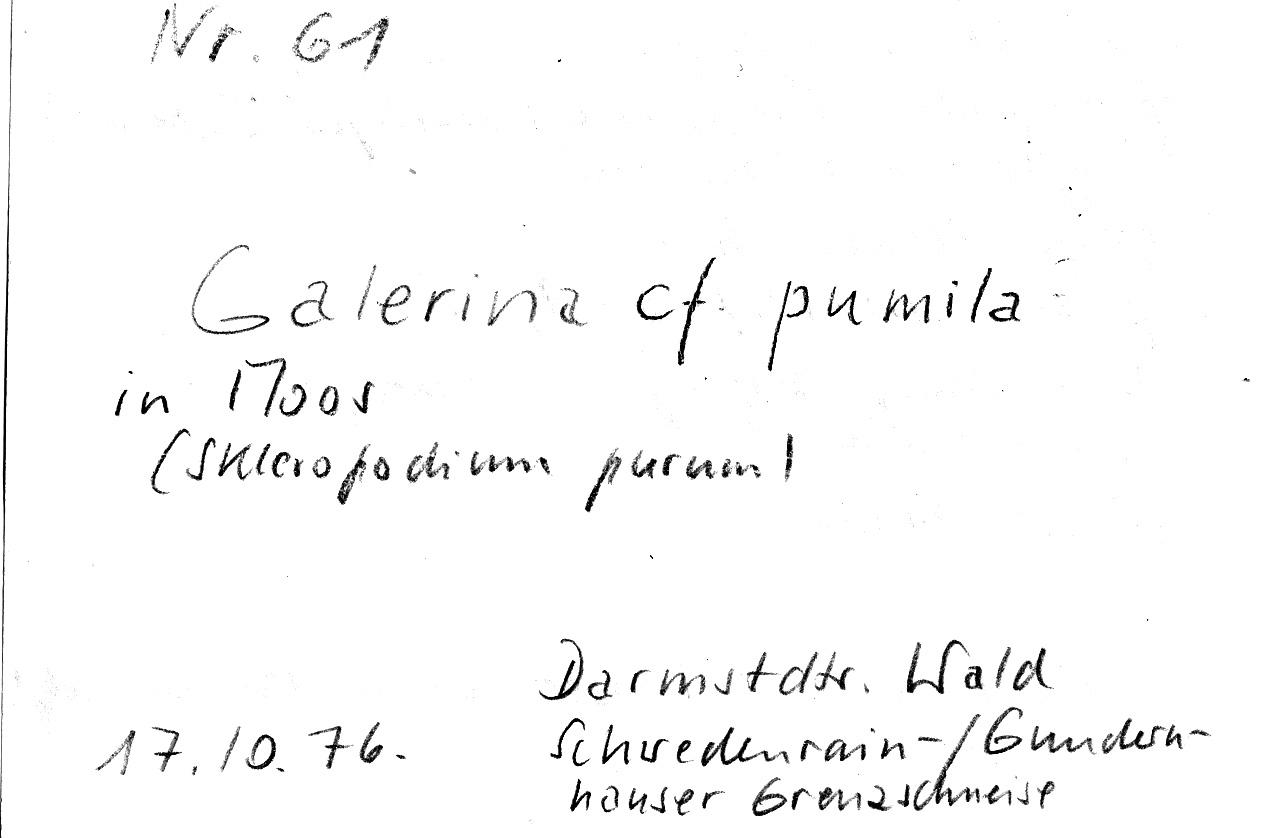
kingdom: Plantae
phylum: Bryophyta
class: Bryopsida
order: Hypnales
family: Brachytheciaceae
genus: Pseudoscleropodium
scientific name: Pseudoscleropodium purum
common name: Neat feather-moss
